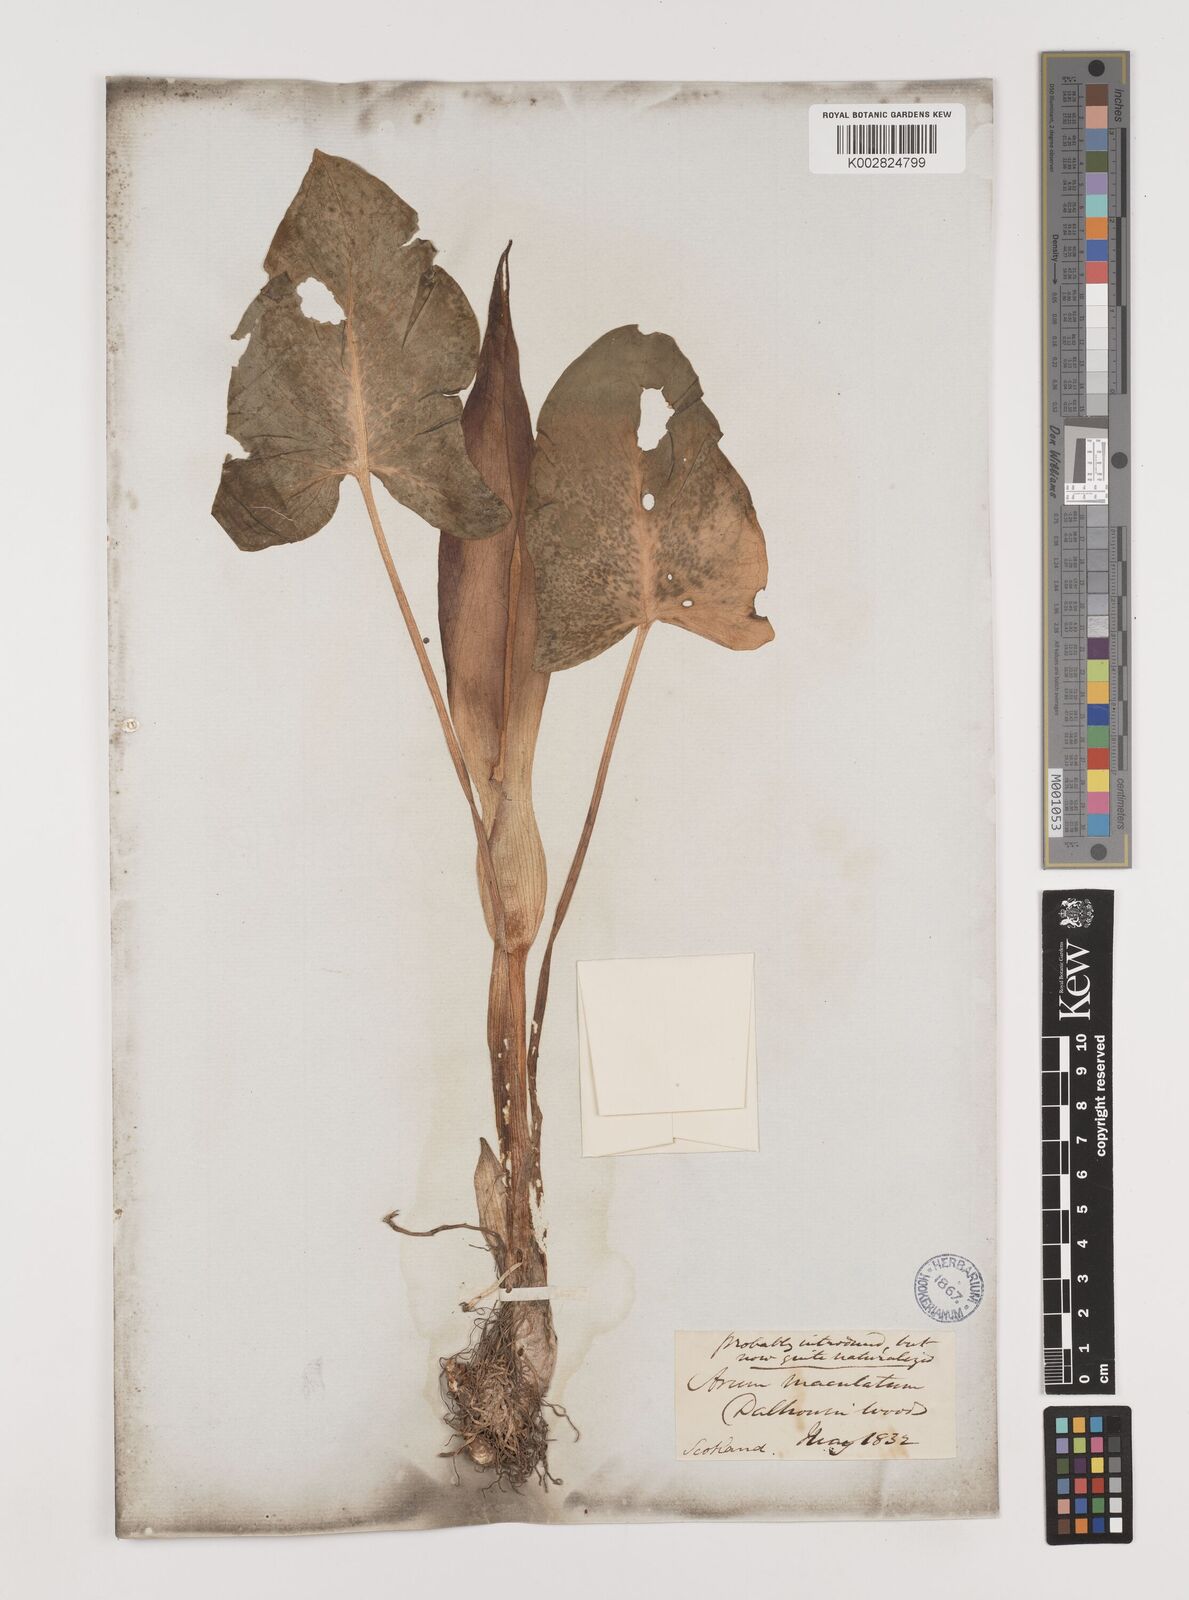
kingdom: Plantae
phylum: Tracheophyta
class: Liliopsida
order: Alismatales
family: Araceae
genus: Arum
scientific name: Arum maculatum
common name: Lords-and-ladies
